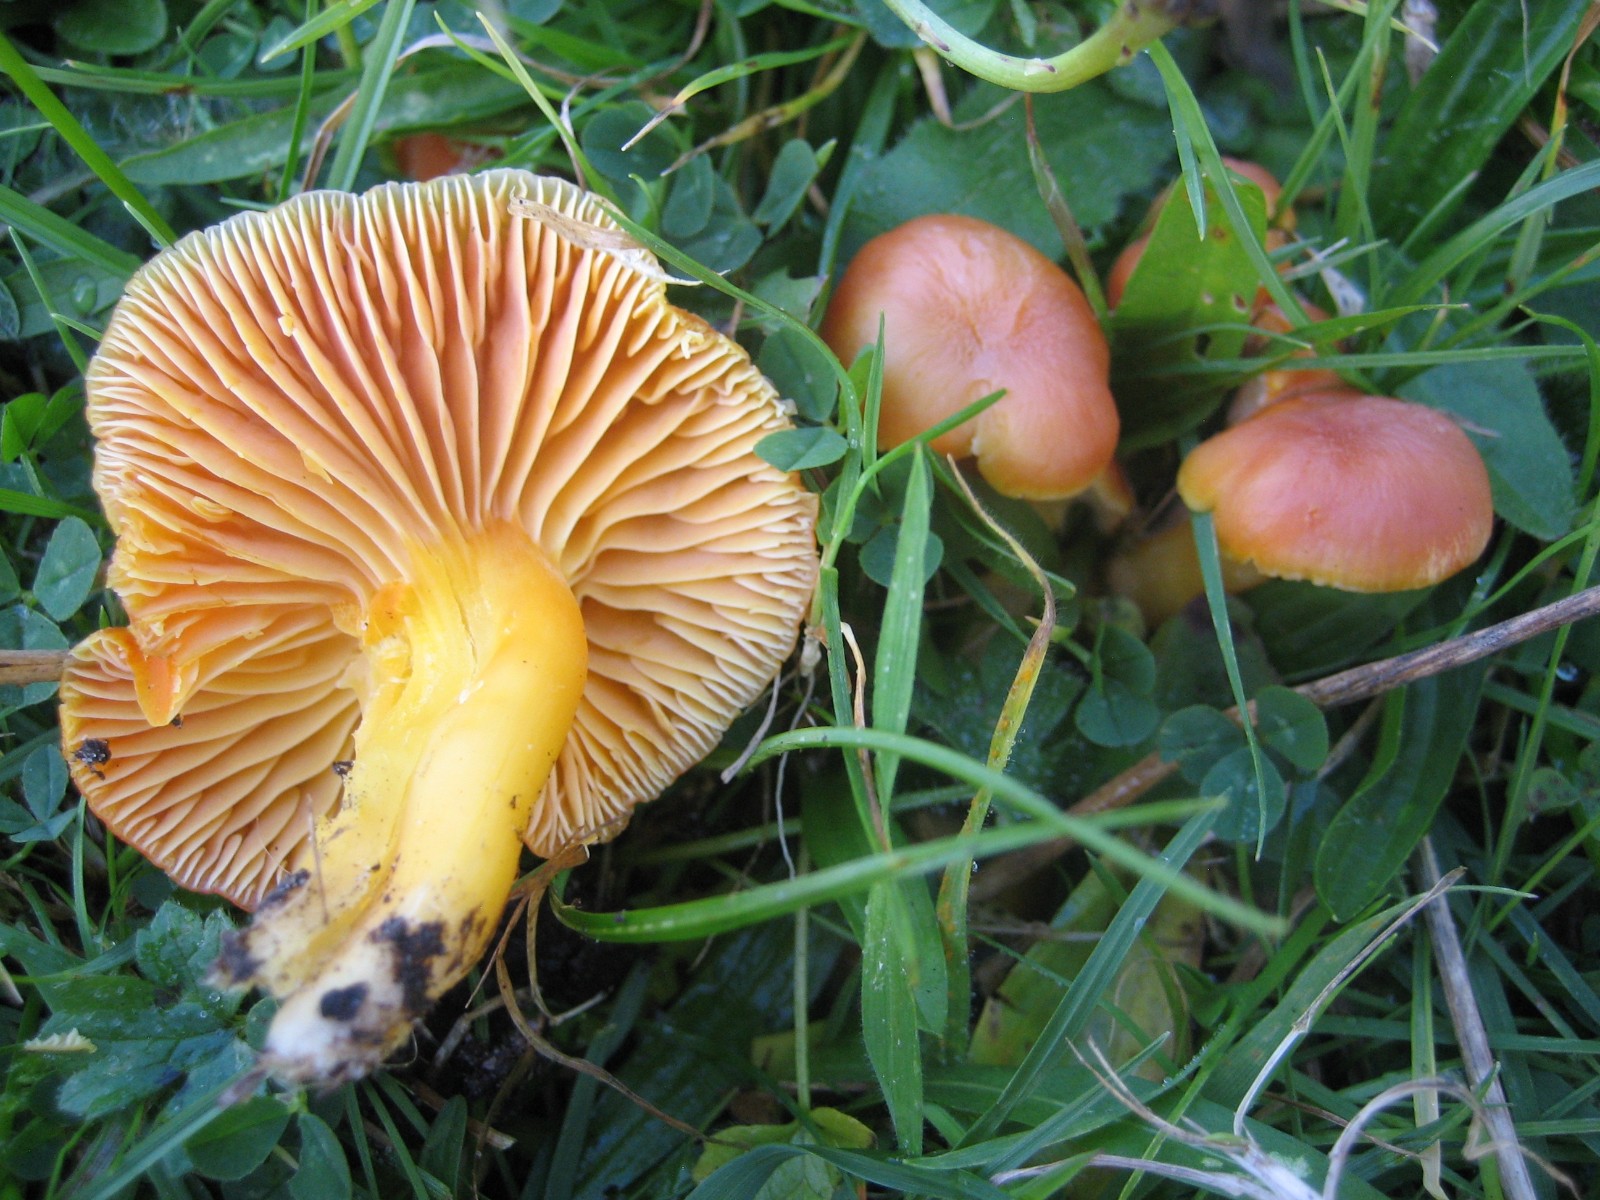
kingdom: Fungi
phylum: Basidiomycota
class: Agaricomycetes
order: Agaricales
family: Hygrophoraceae
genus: Hygrocybe
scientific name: Hygrocybe quieta
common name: tæge-vokshat
